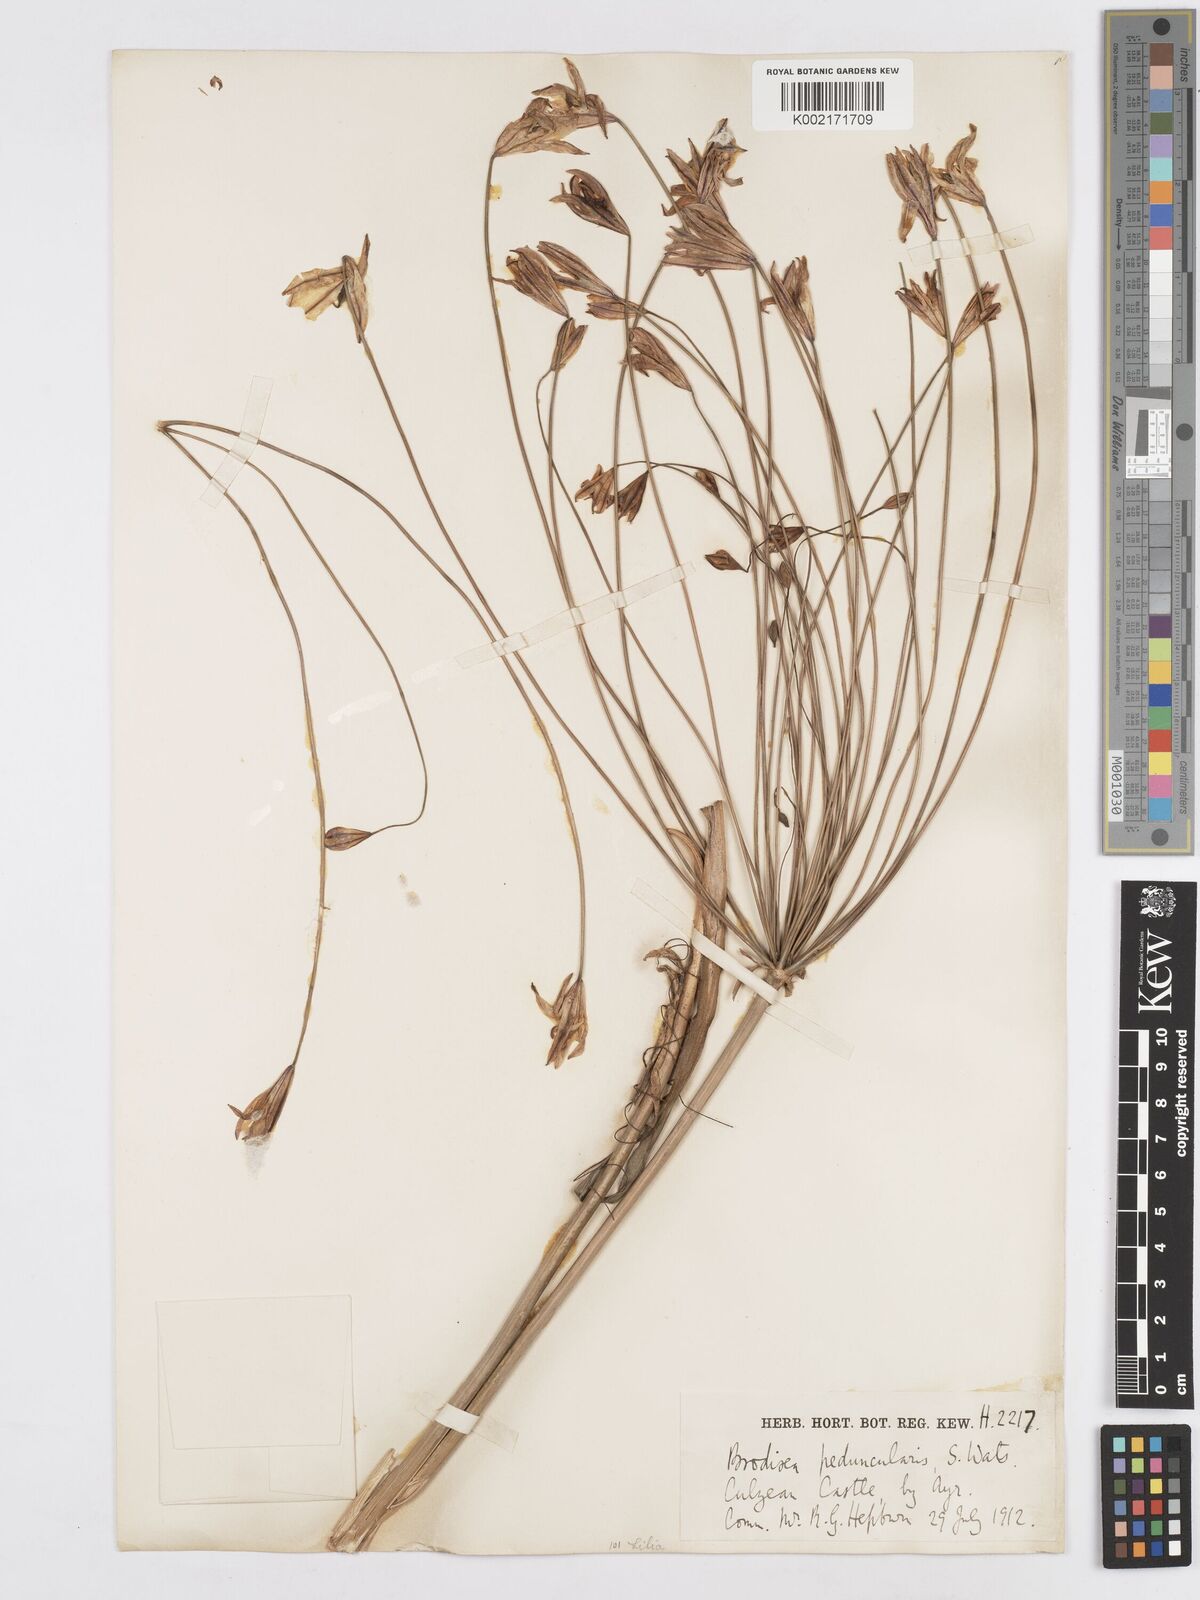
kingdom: Plantae
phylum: Tracheophyta
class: Liliopsida
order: Asparagales
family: Asparagaceae
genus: Triteleia
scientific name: Triteleia peduncularis
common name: Long-ray brodiaea
